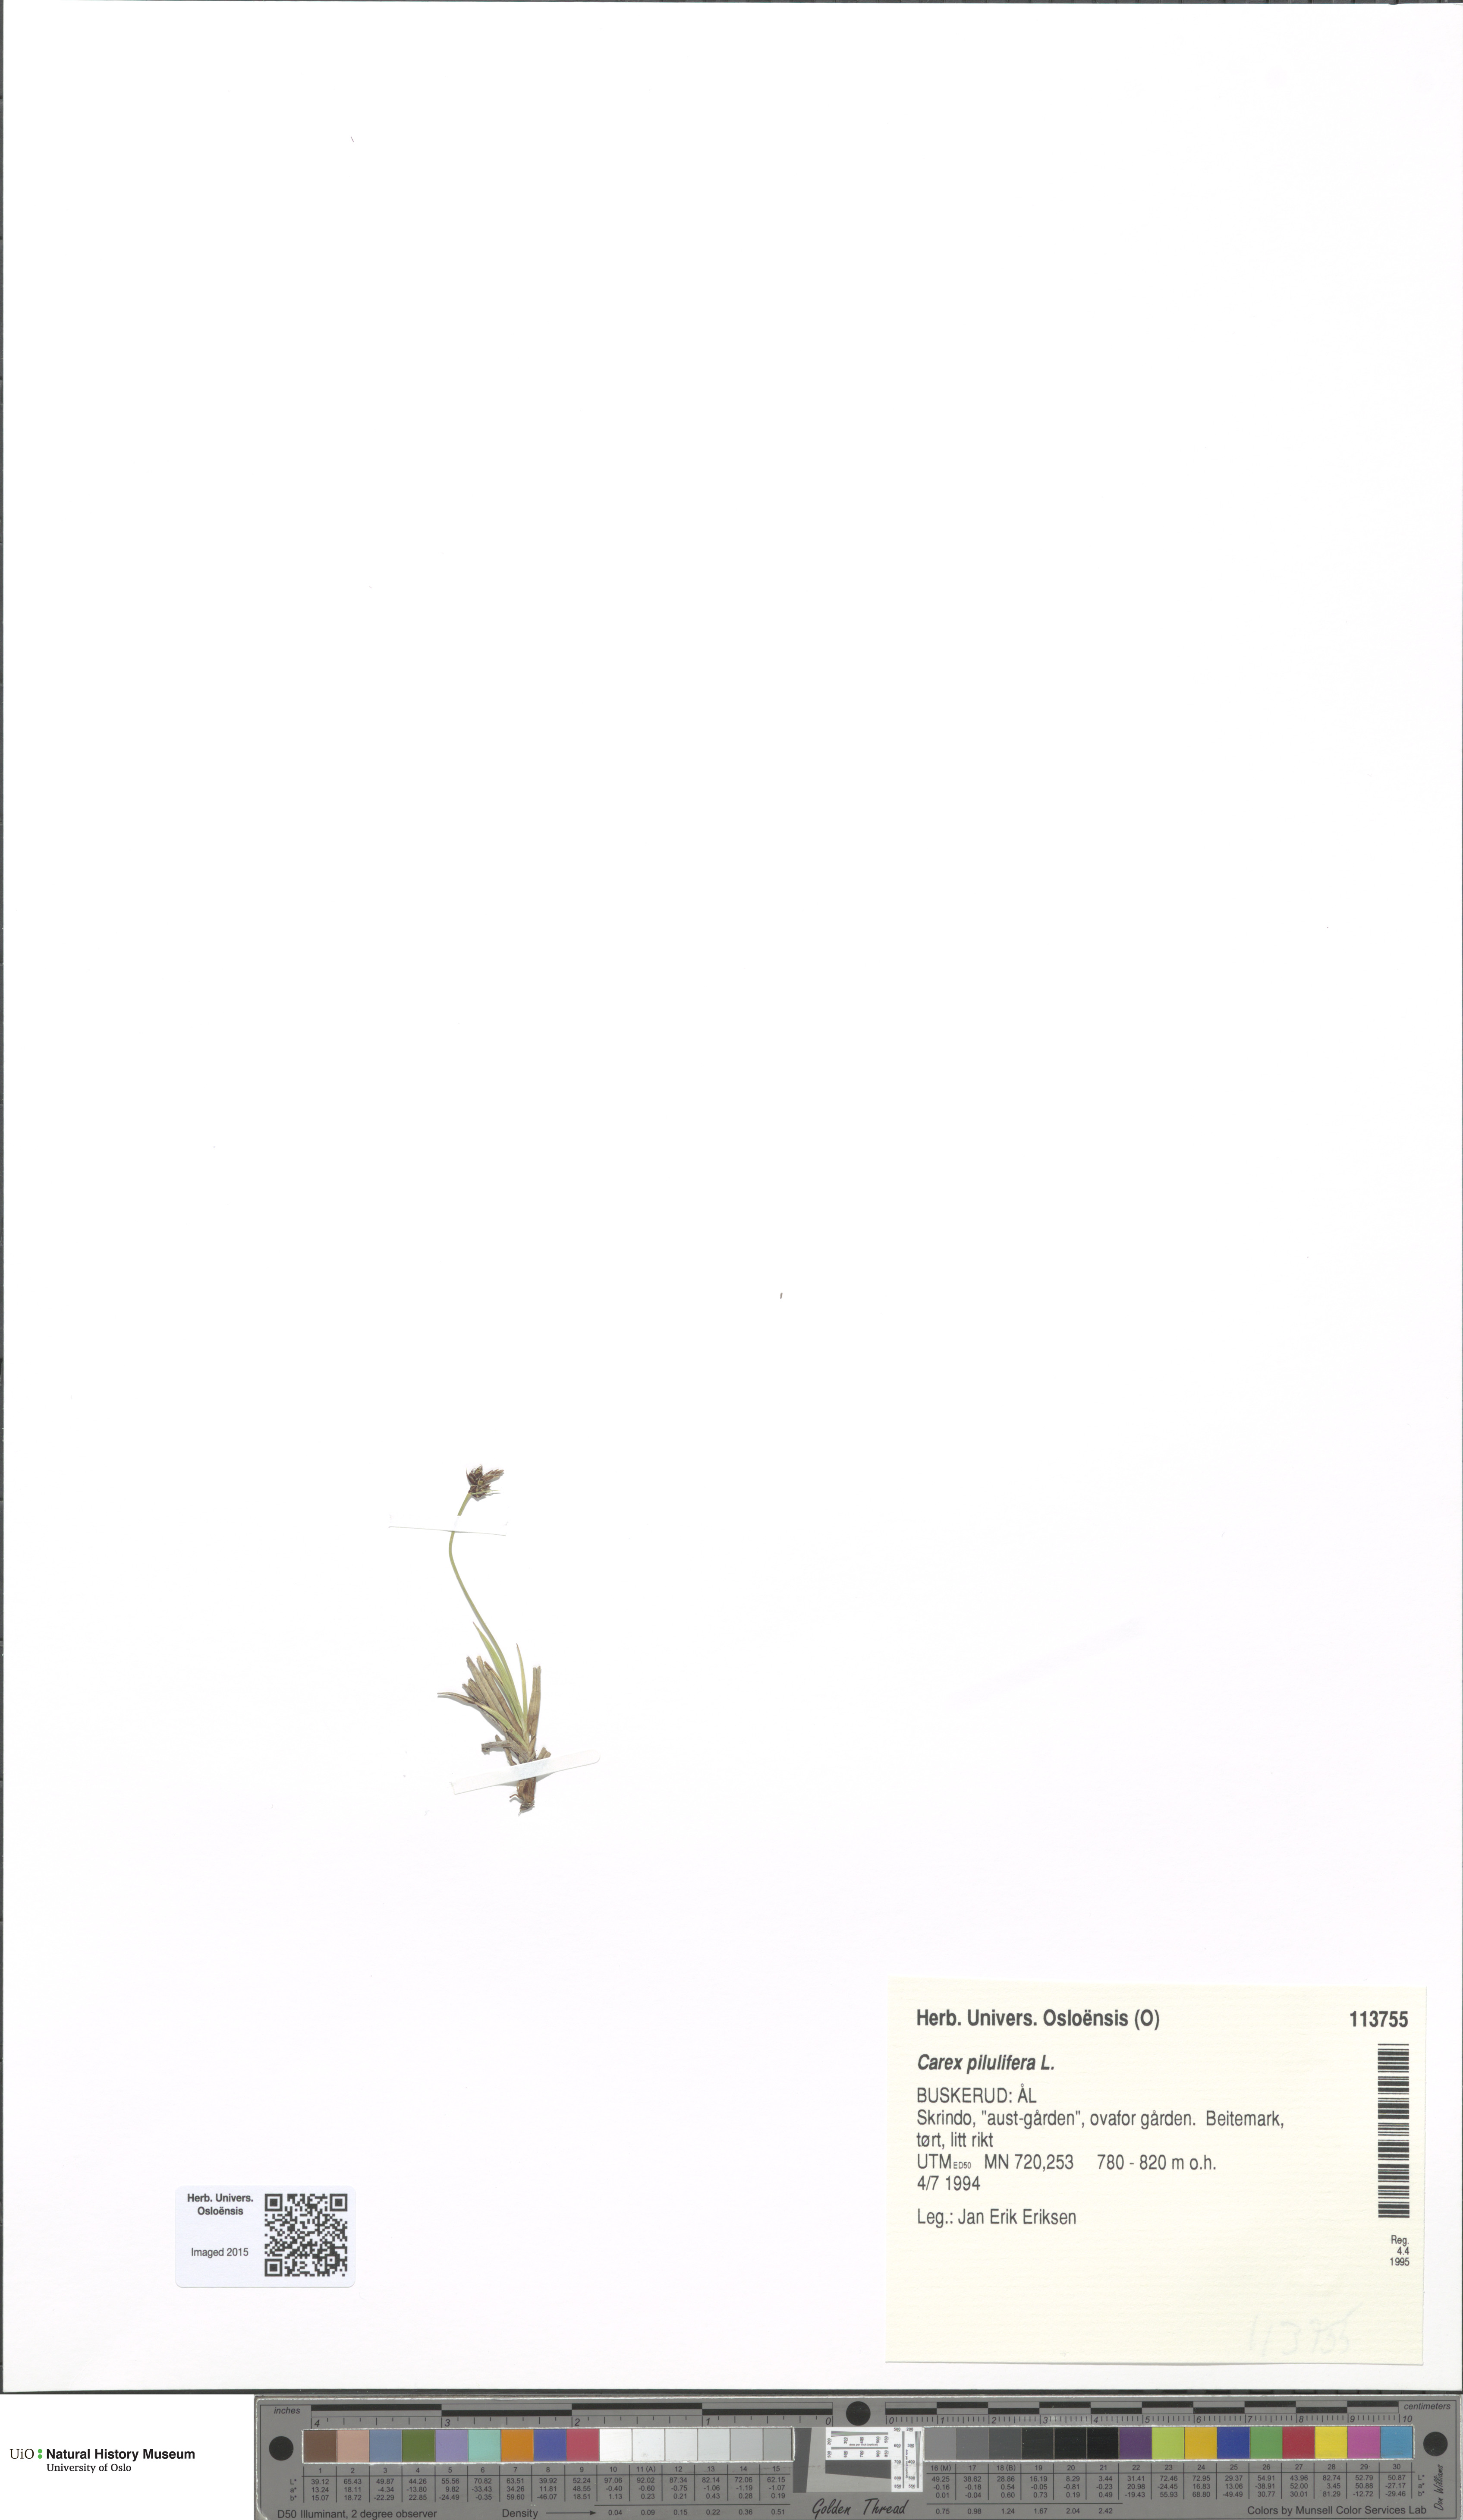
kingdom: Plantae
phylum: Tracheophyta
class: Liliopsida
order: Poales
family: Cyperaceae
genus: Carex
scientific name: Carex pilulifera
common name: Pill sedge
